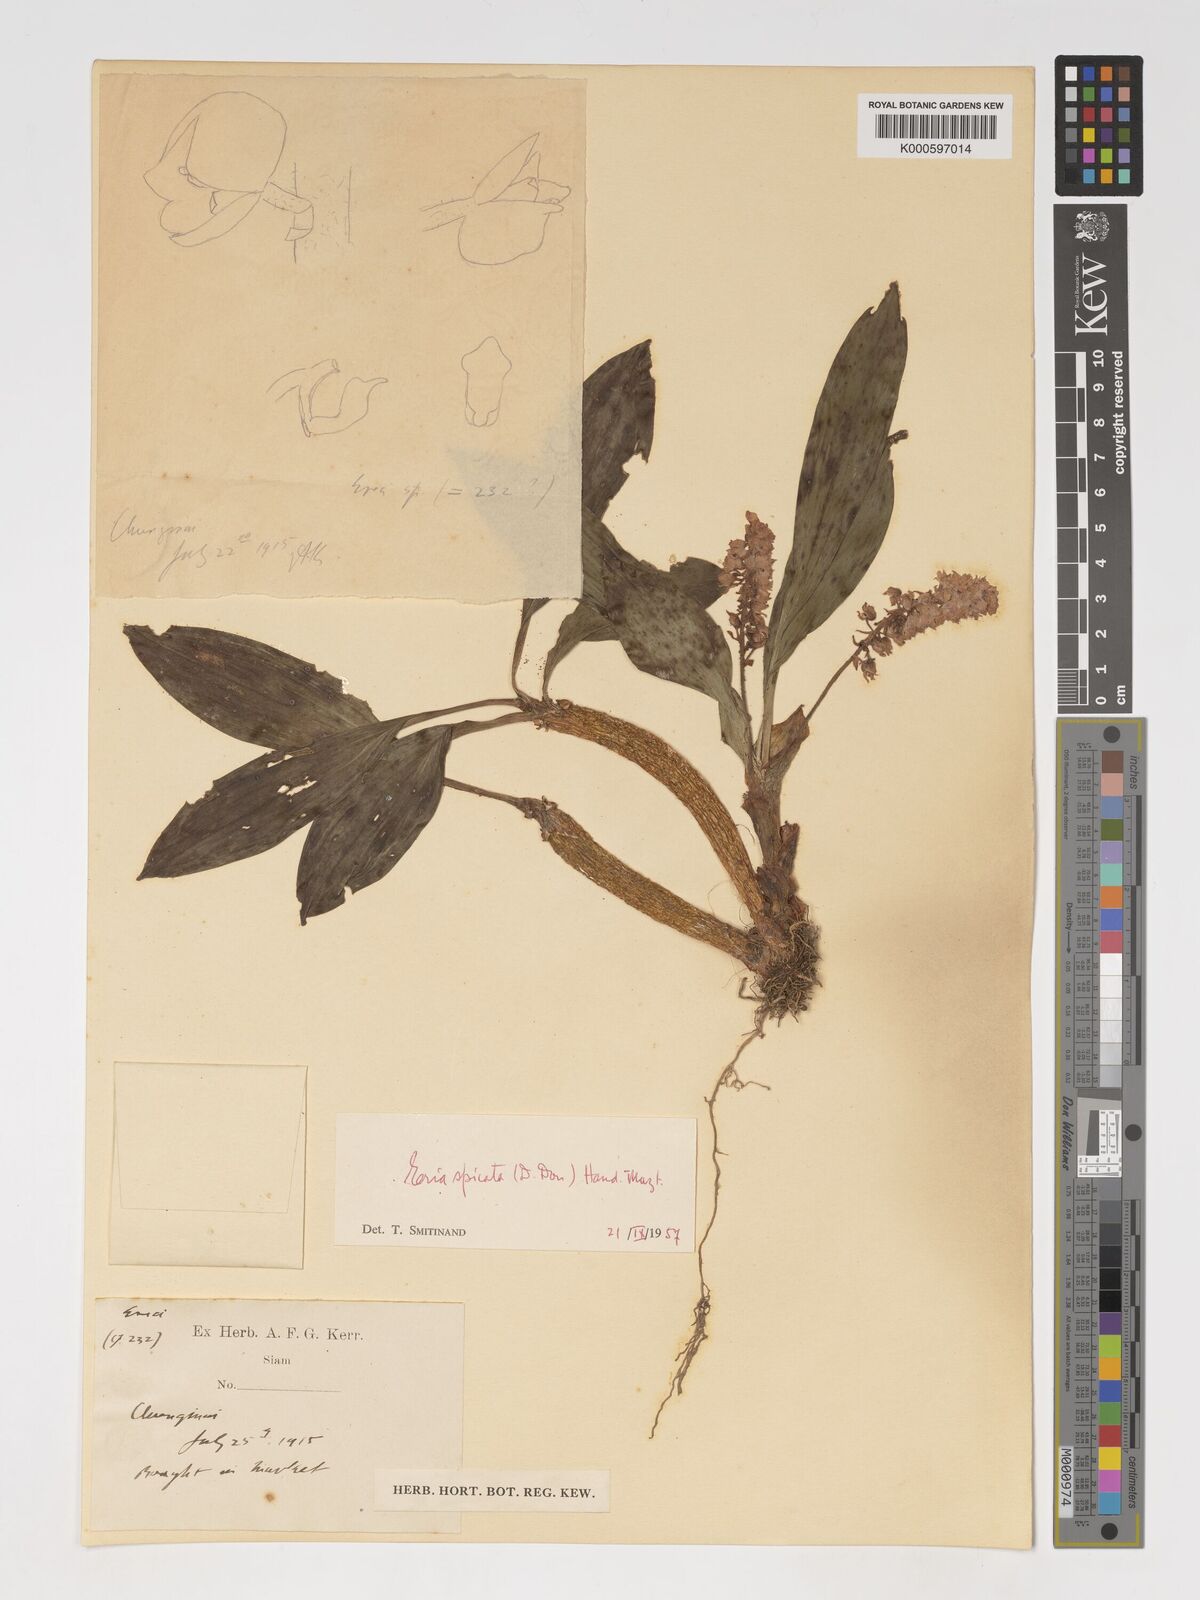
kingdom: Plantae
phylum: Tracheophyta
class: Liliopsida
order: Asparagales
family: Orchidaceae
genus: Pinalia
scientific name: Pinalia spicata
